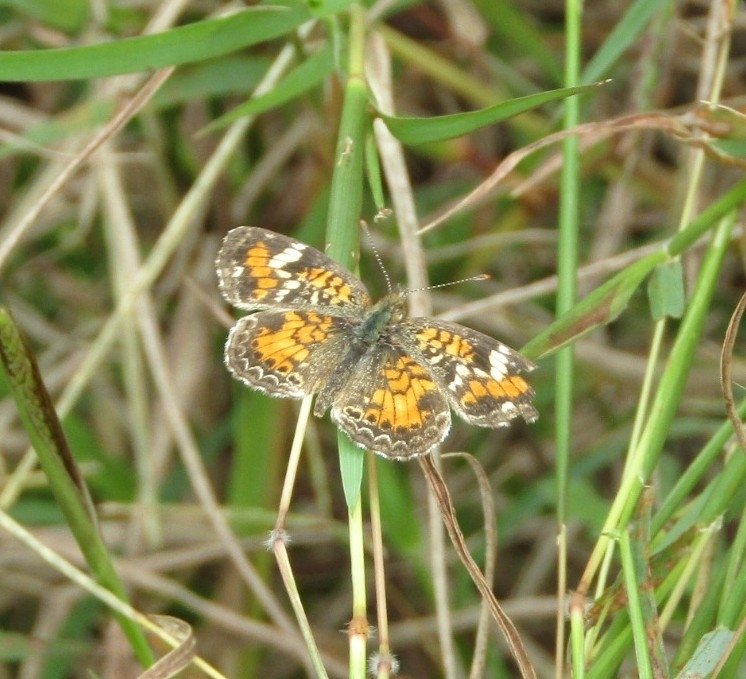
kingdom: Animalia
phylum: Arthropoda
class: Insecta
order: Lepidoptera
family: Nymphalidae
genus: Phyciodes
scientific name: Phyciodes phaon
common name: Phaon Crescent
